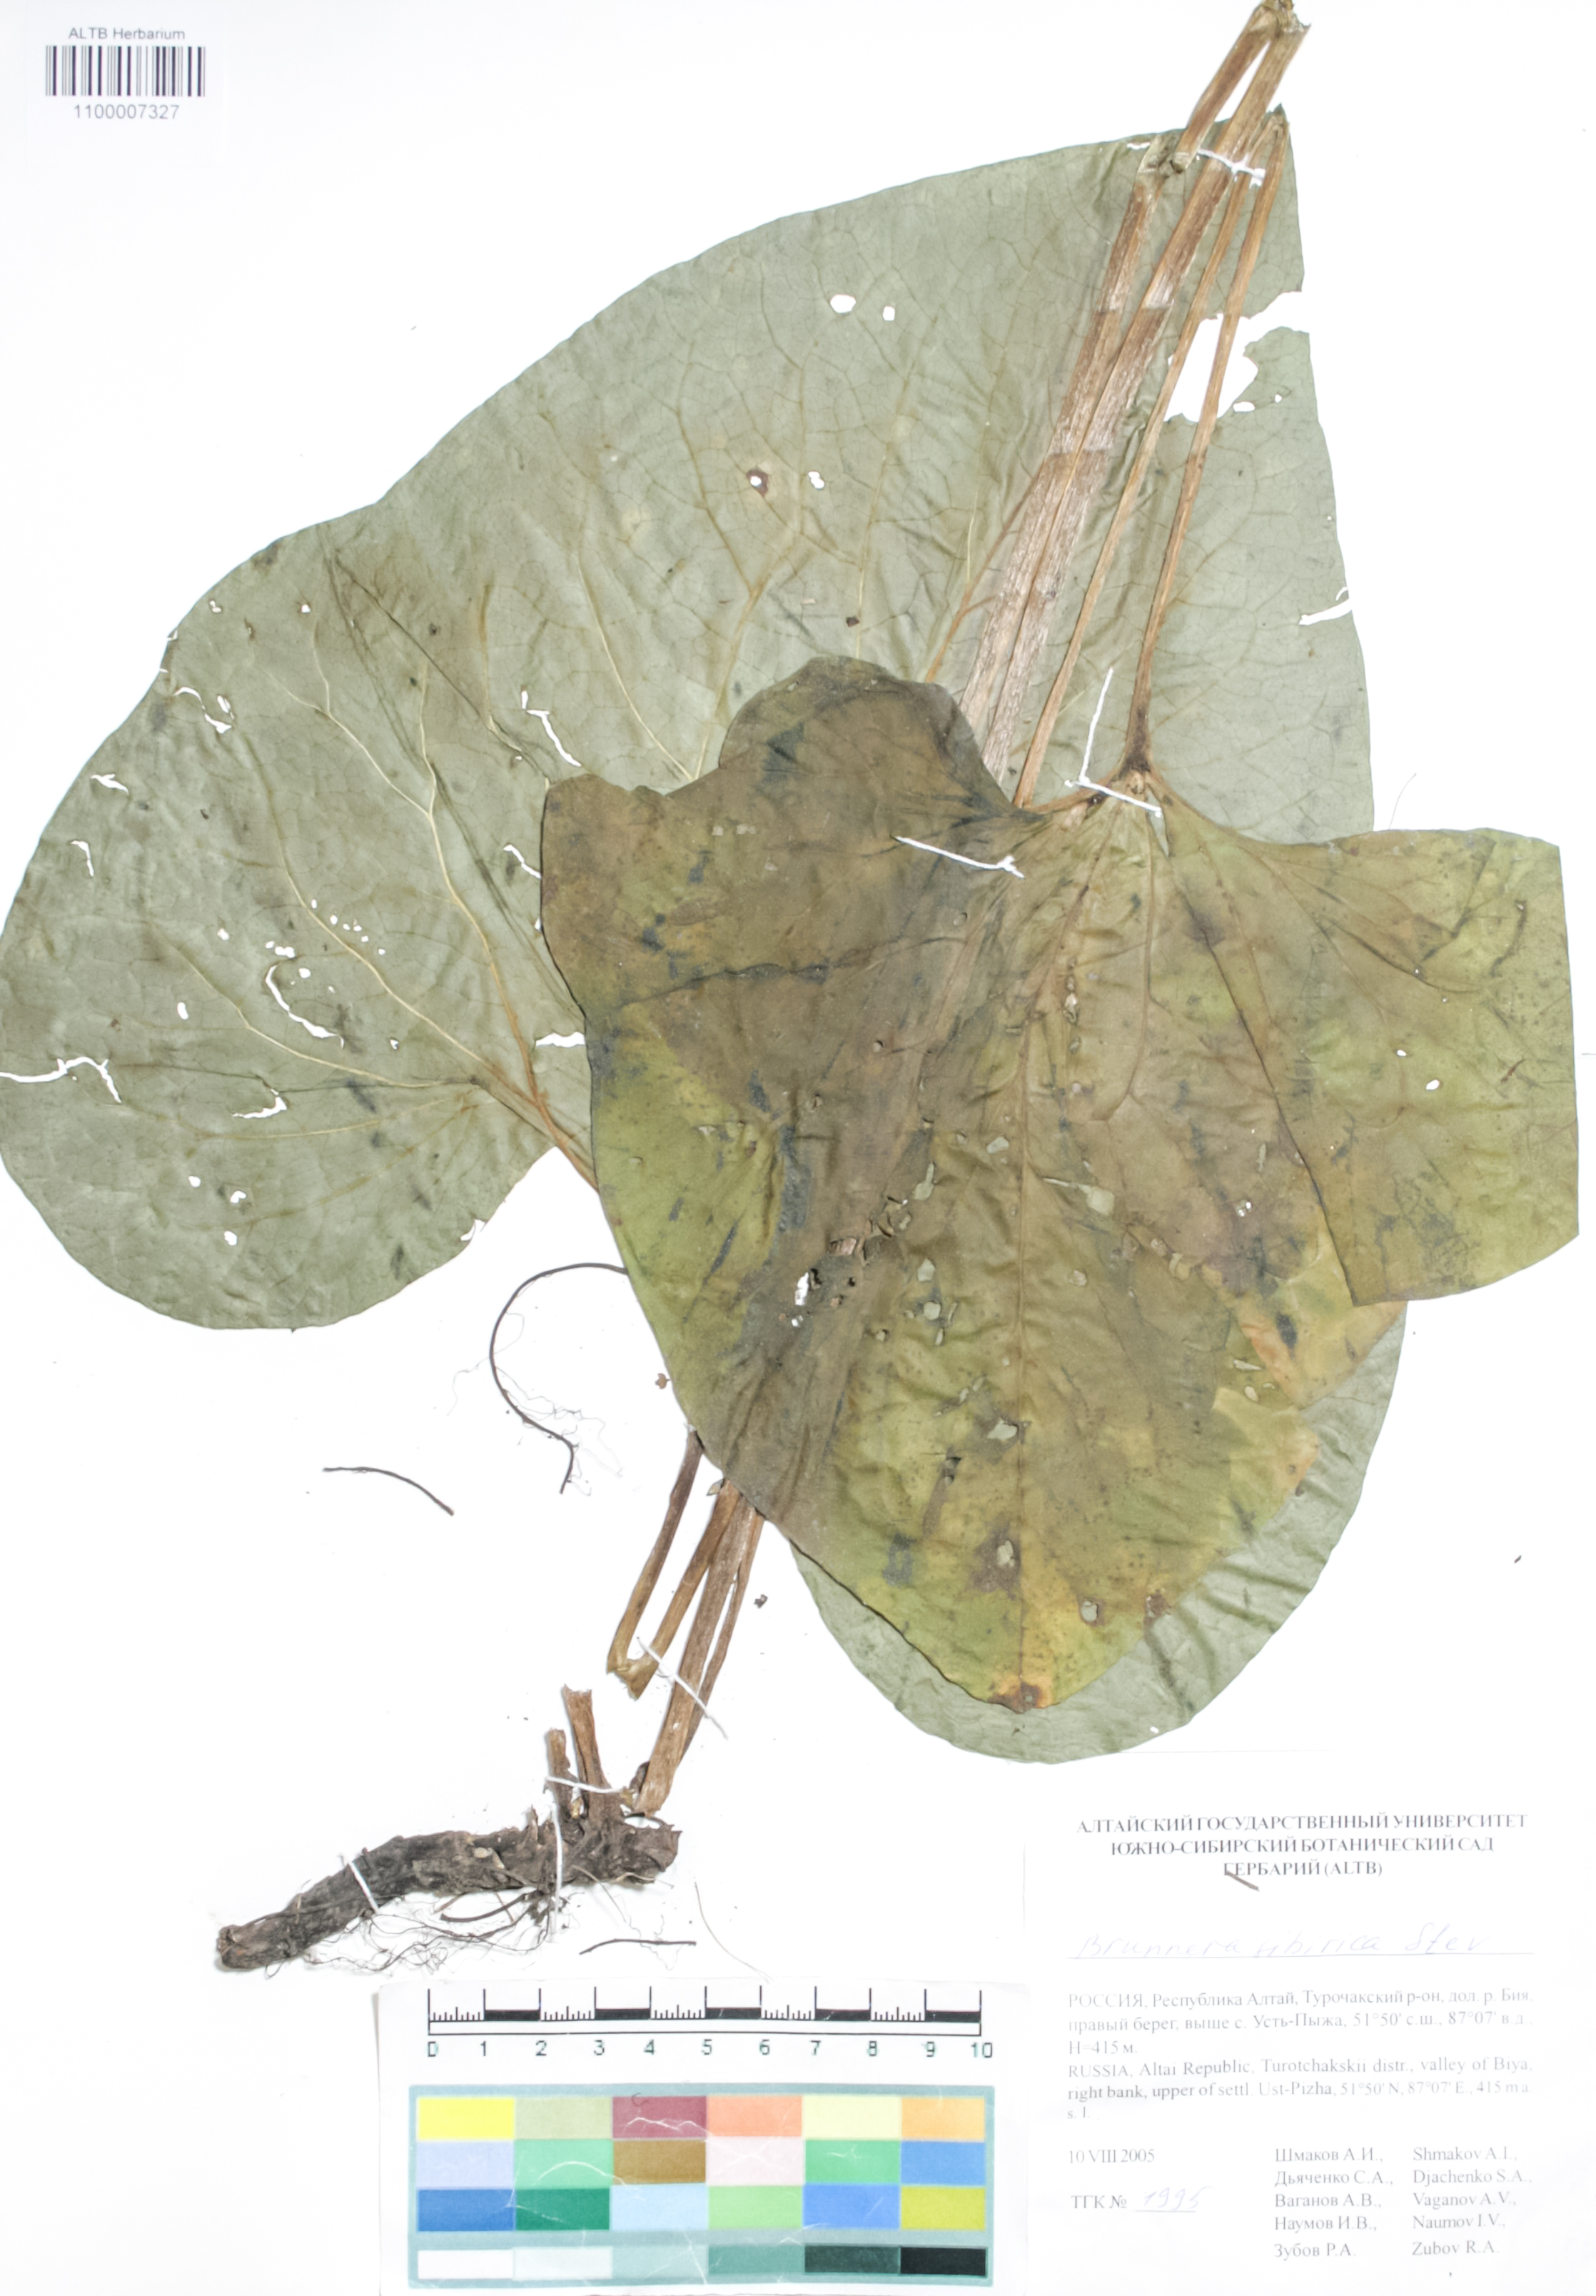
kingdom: Plantae
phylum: Tracheophyta
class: Magnoliopsida
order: Boraginales
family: Boraginaceae
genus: Brunnera
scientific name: Brunnera sibirica
